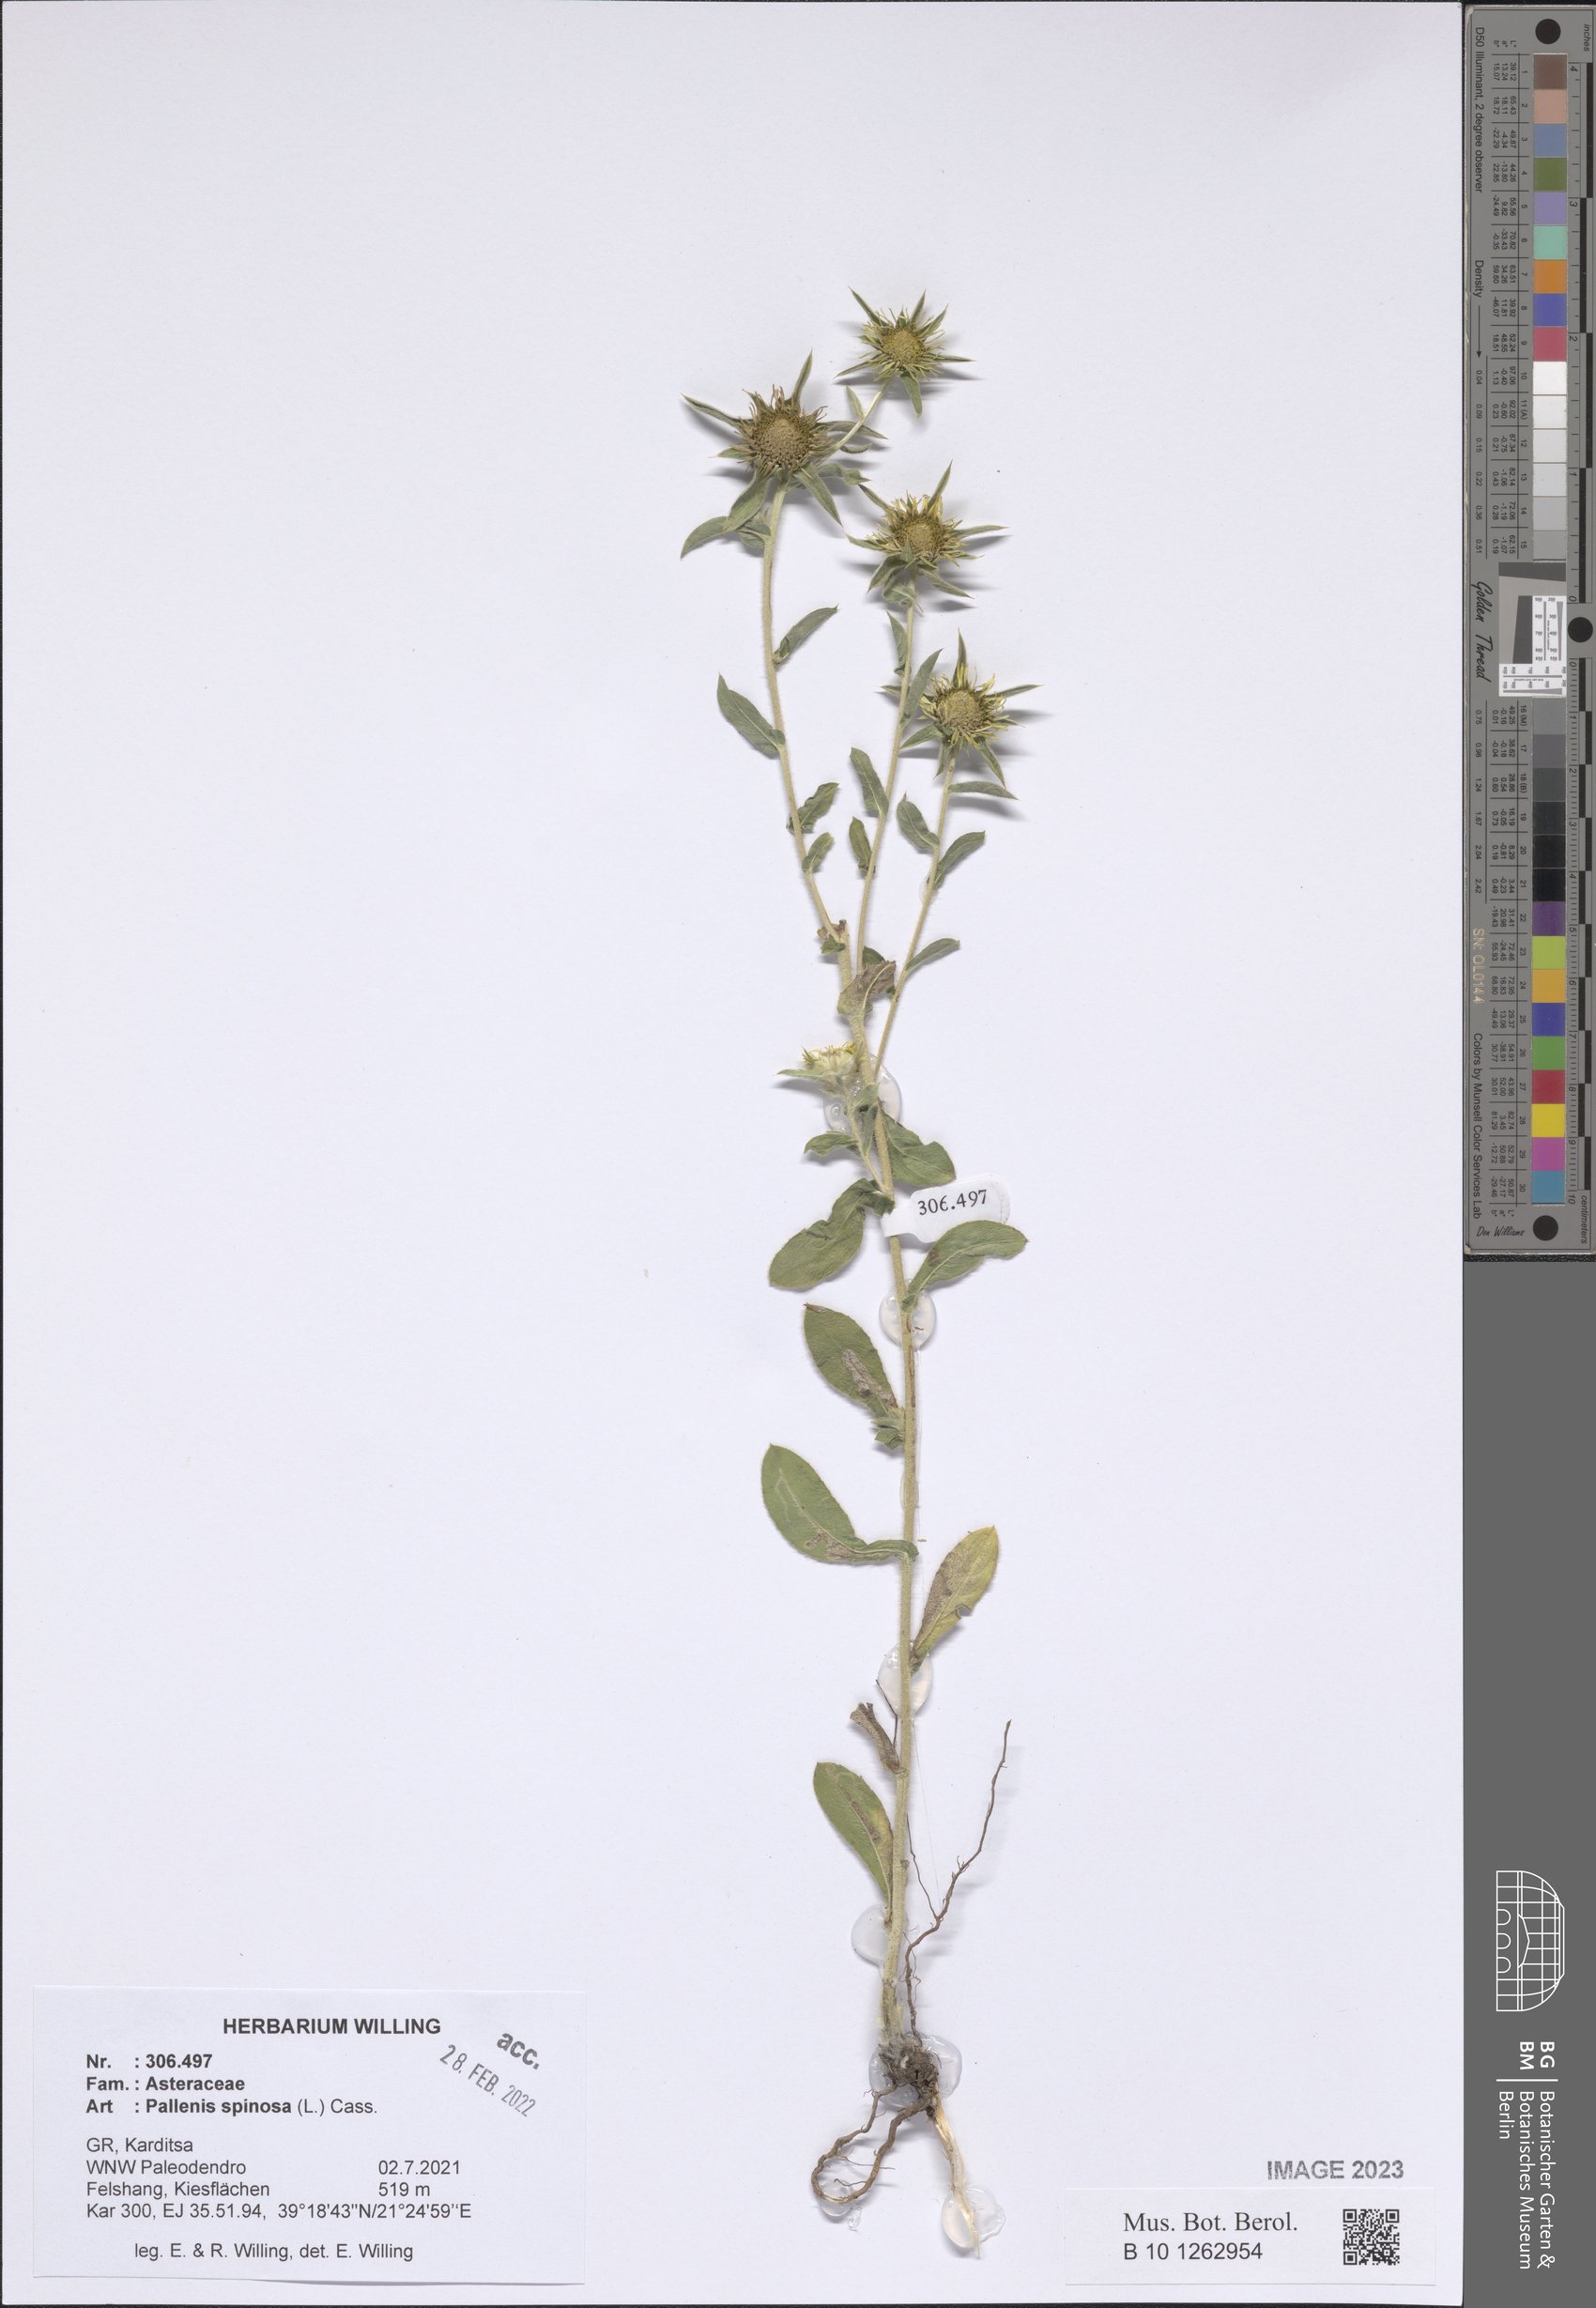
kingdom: Plantae
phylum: Tracheophyta
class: Magnoliopsida
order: Asterales
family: Asteraceae
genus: Pallenis
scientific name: Pallenis spinosa
